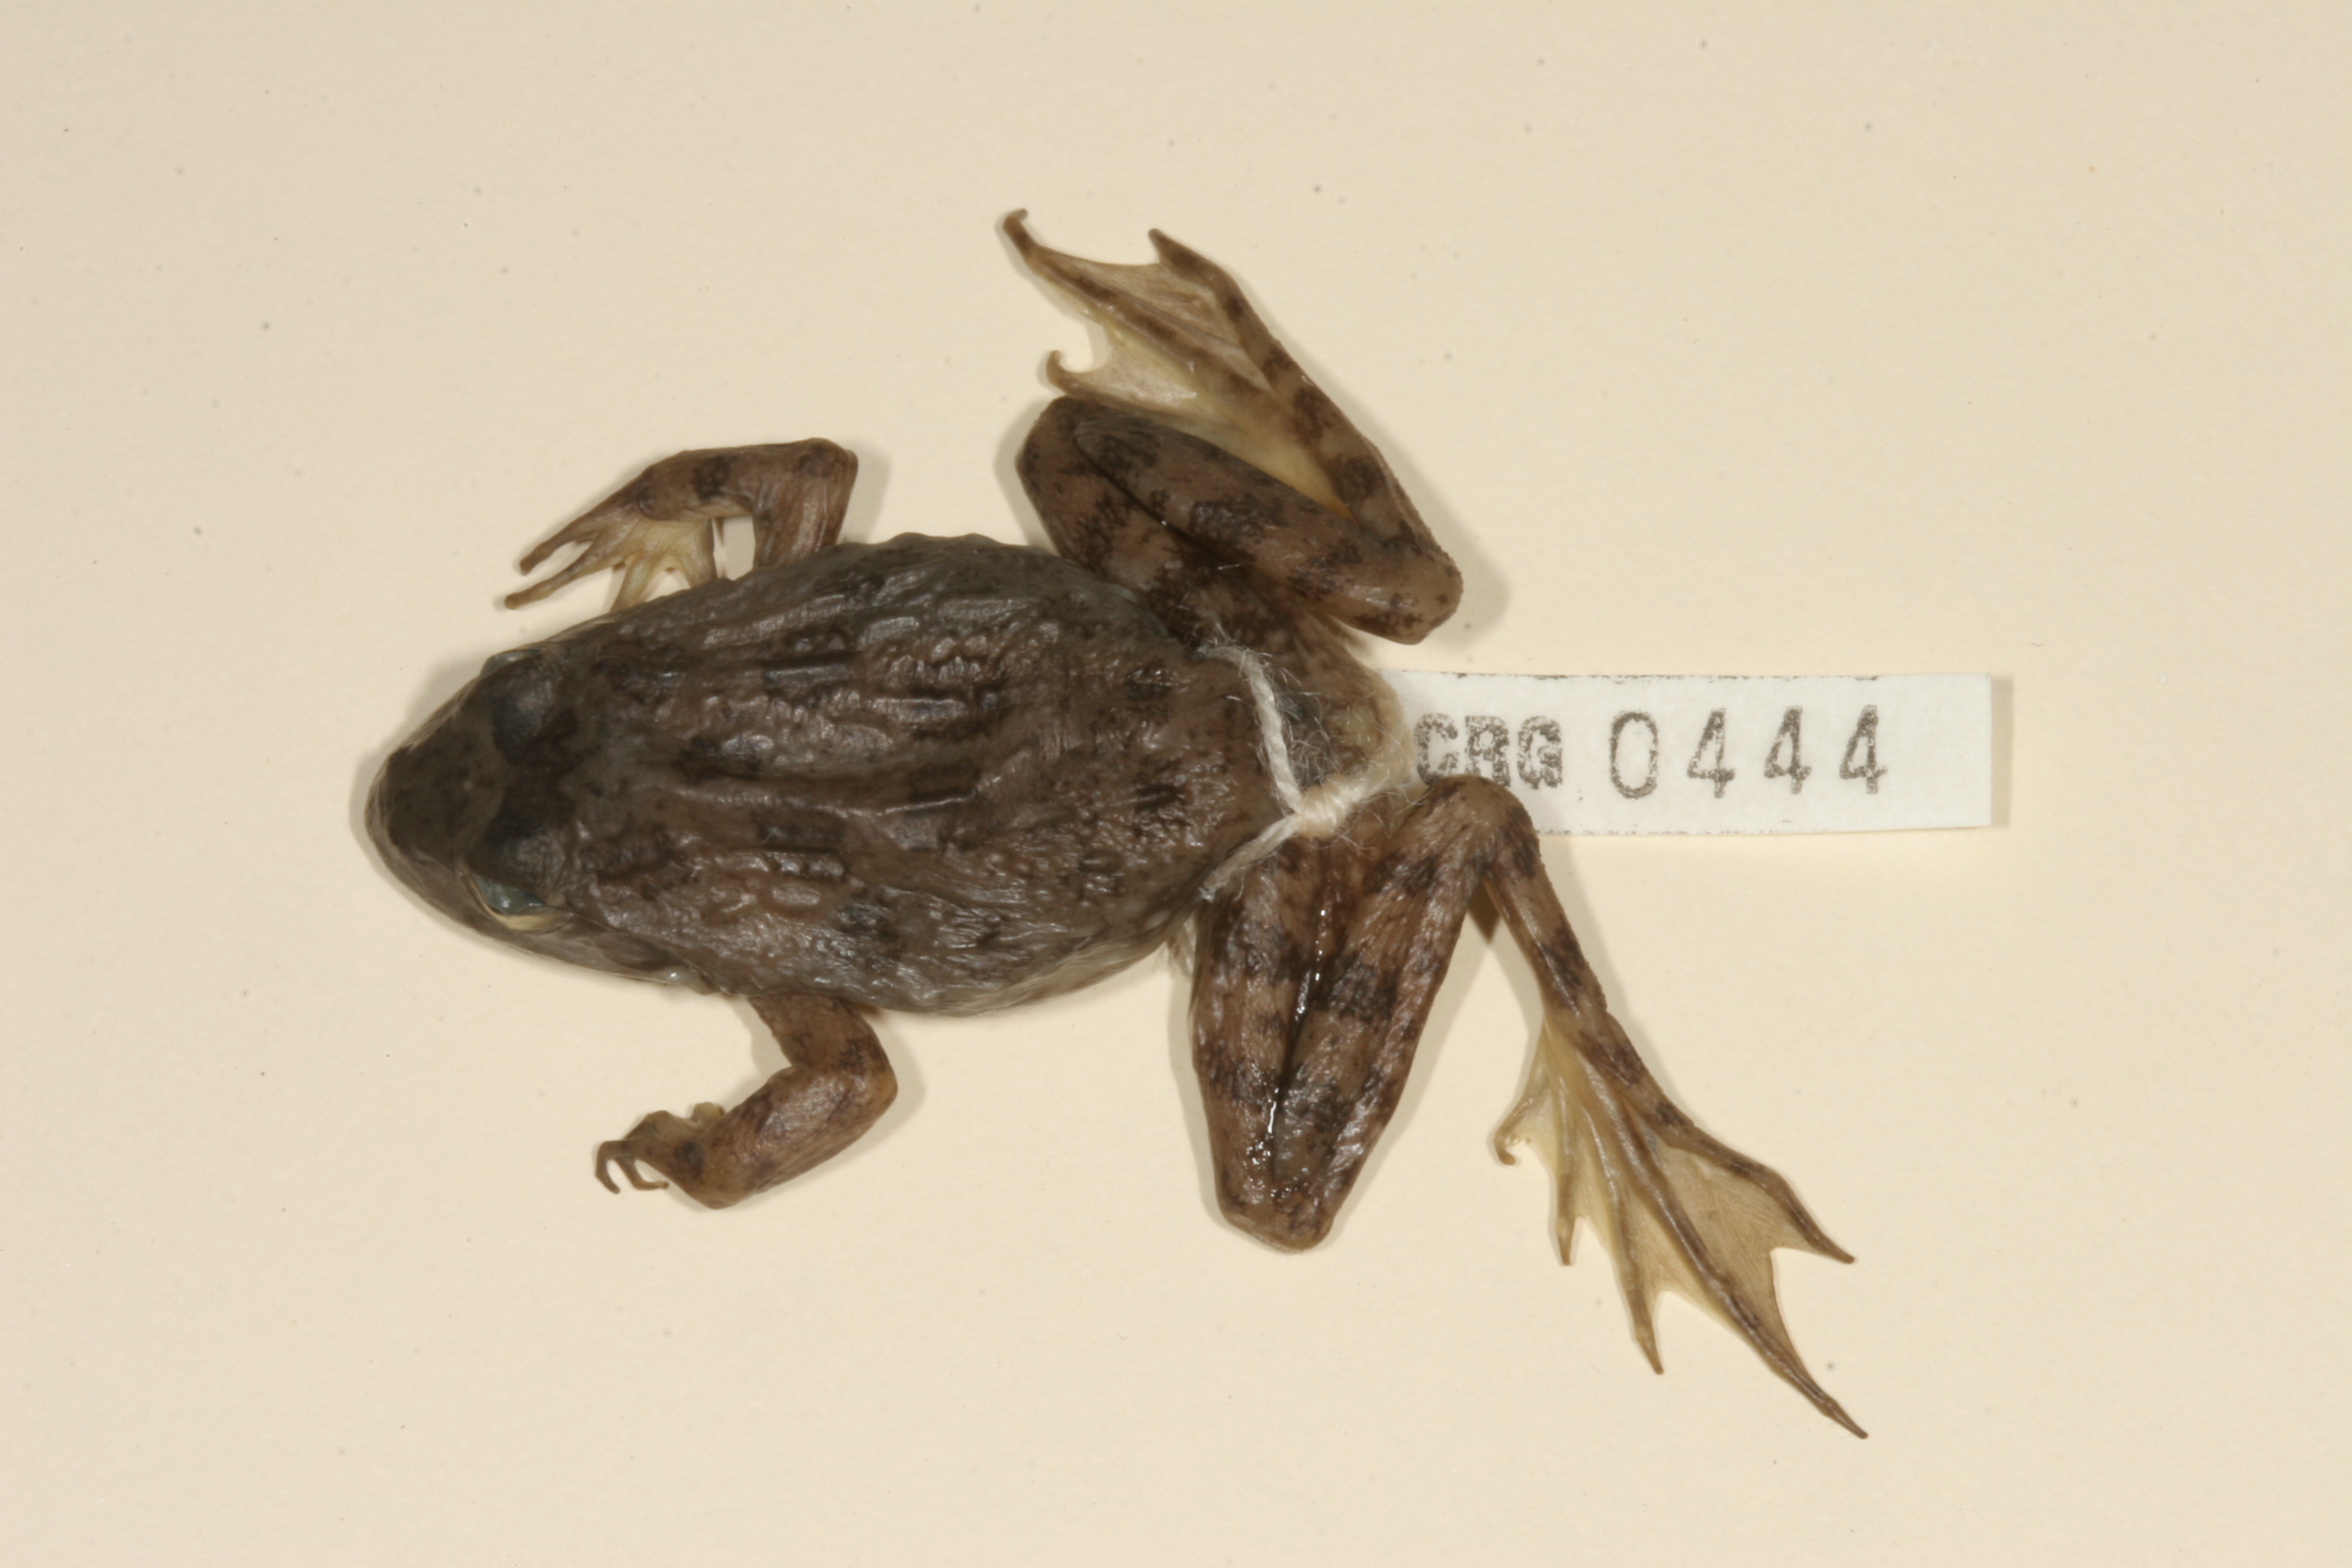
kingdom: Animalia
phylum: Chordata
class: Amphibia
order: Anura
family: Pyxicephalidae
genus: Amietia
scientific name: Amietia fuscigula
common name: Cape rana
